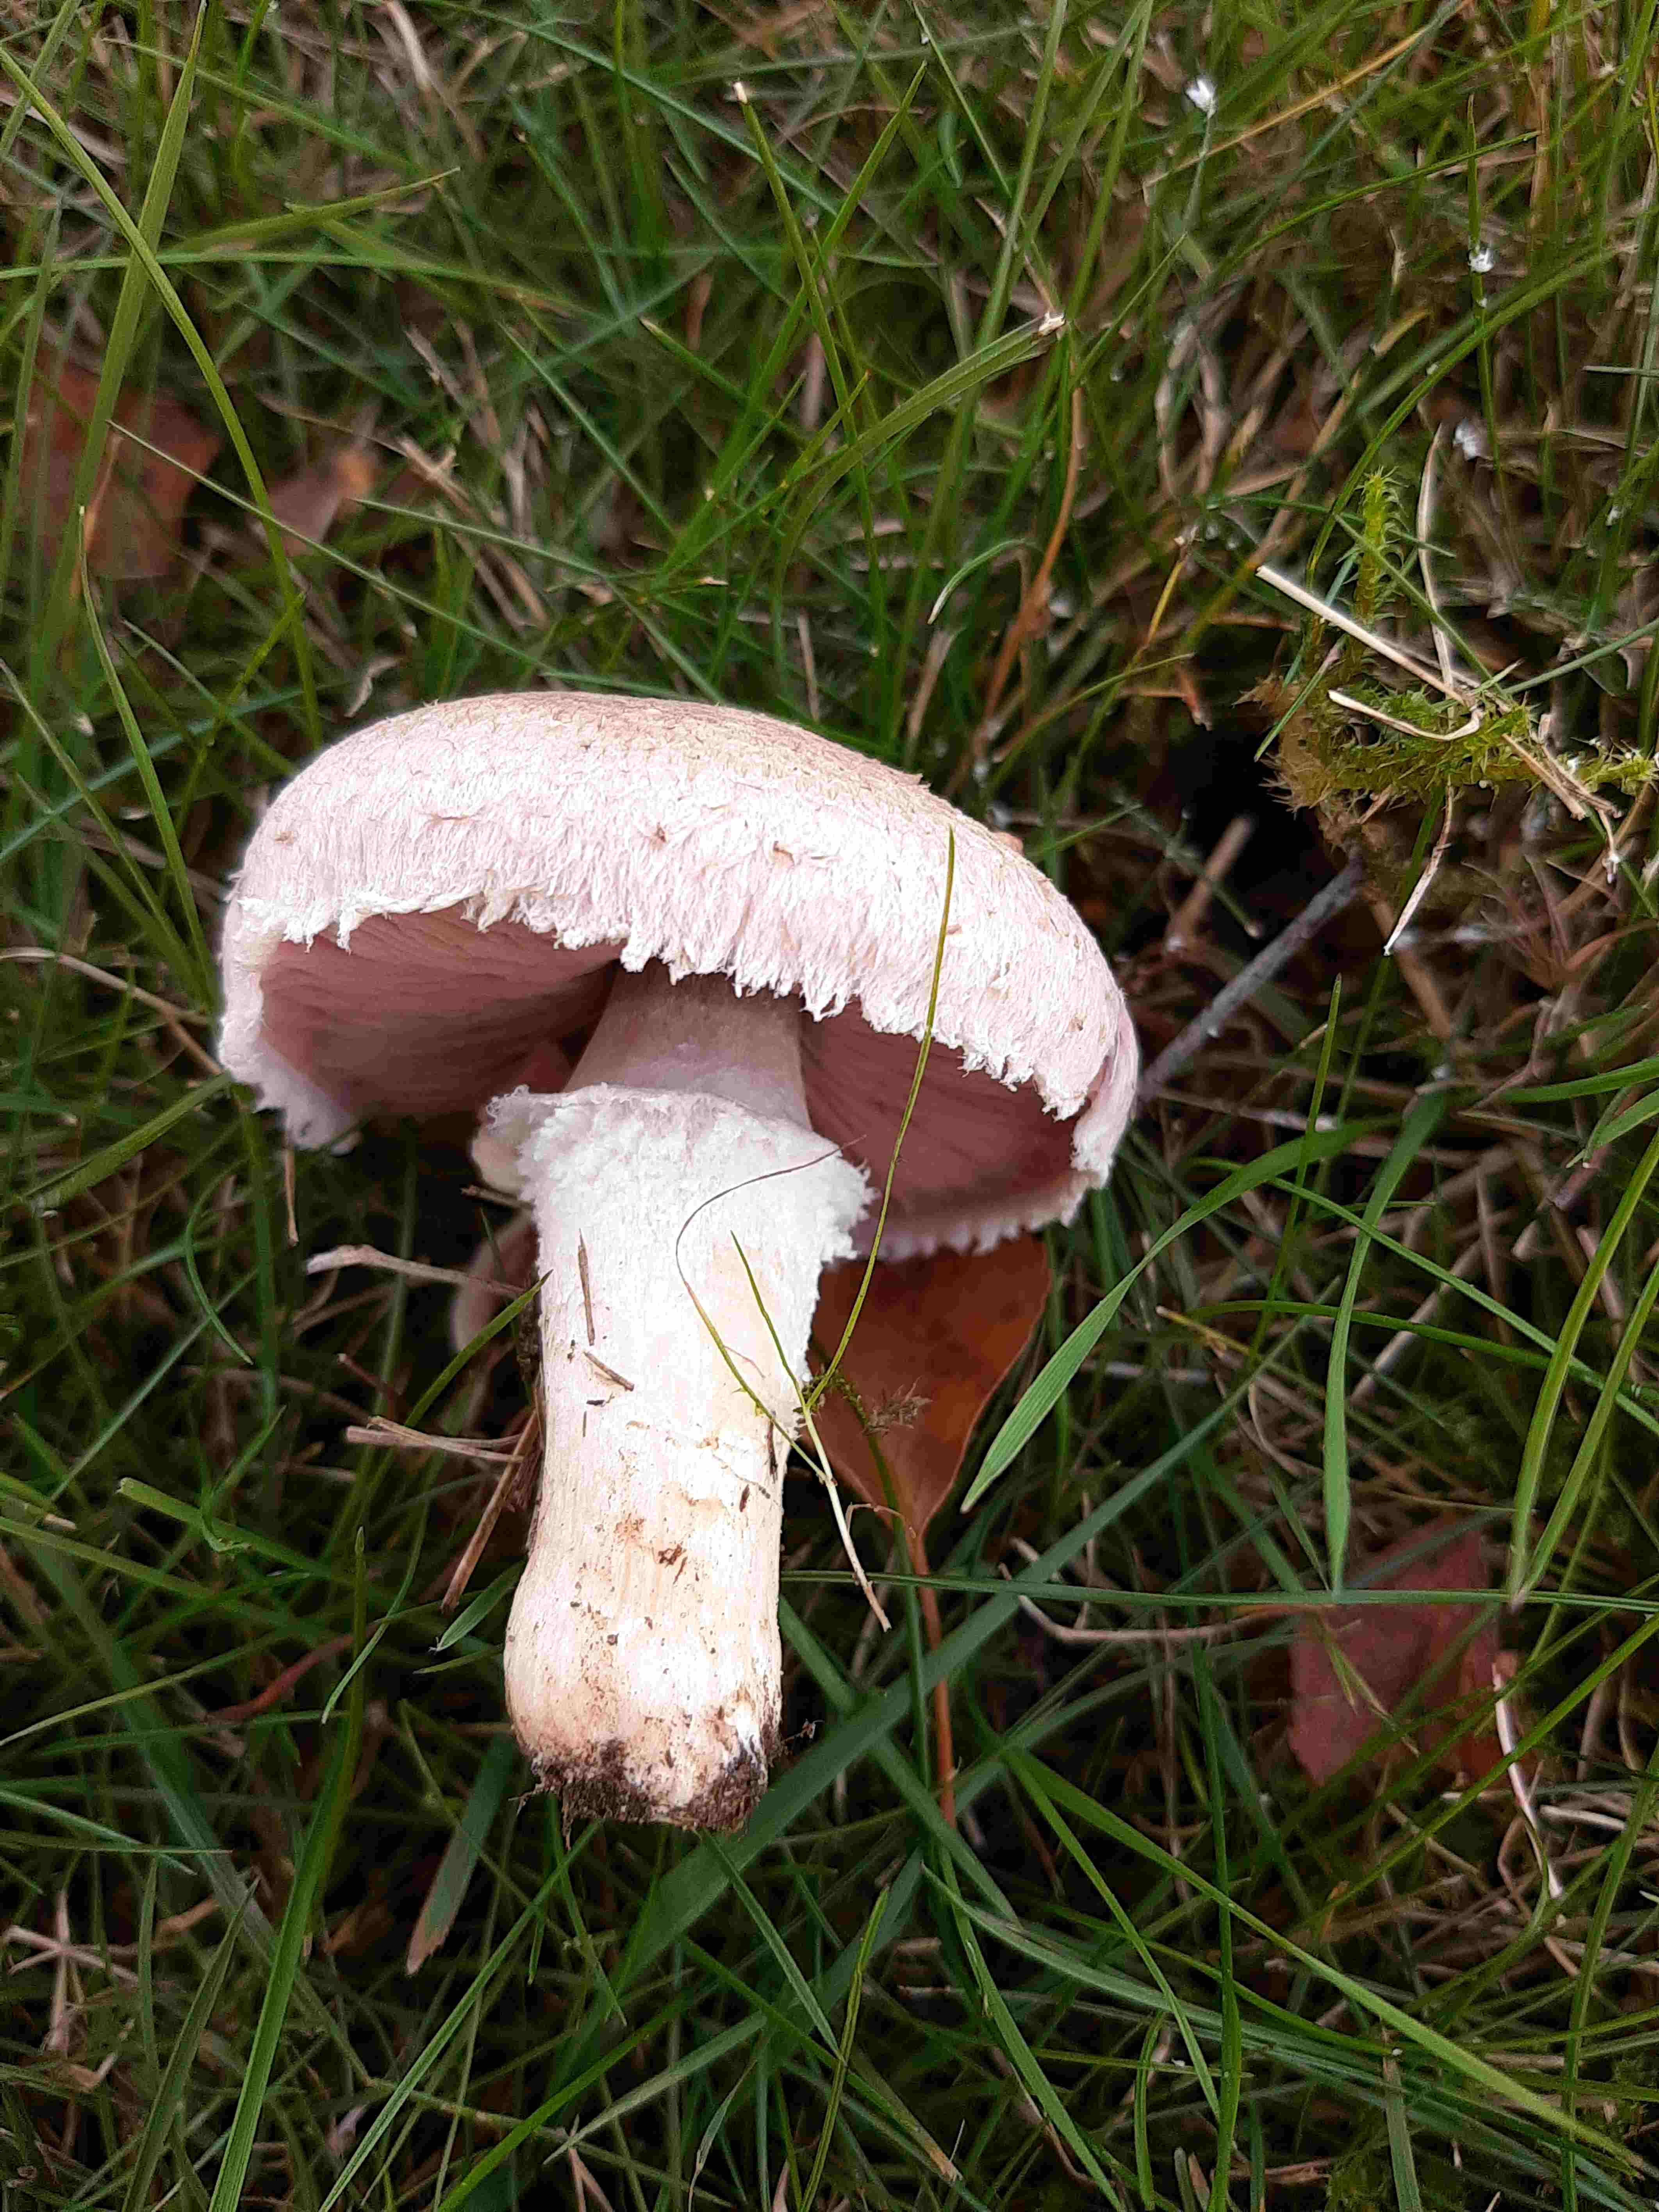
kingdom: Fungi
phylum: Basidiomycota
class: Agaricomycetes
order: Agaricales
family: Agaricaceae
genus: Agaricus
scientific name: Agaricus campestris
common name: mark-champignon
